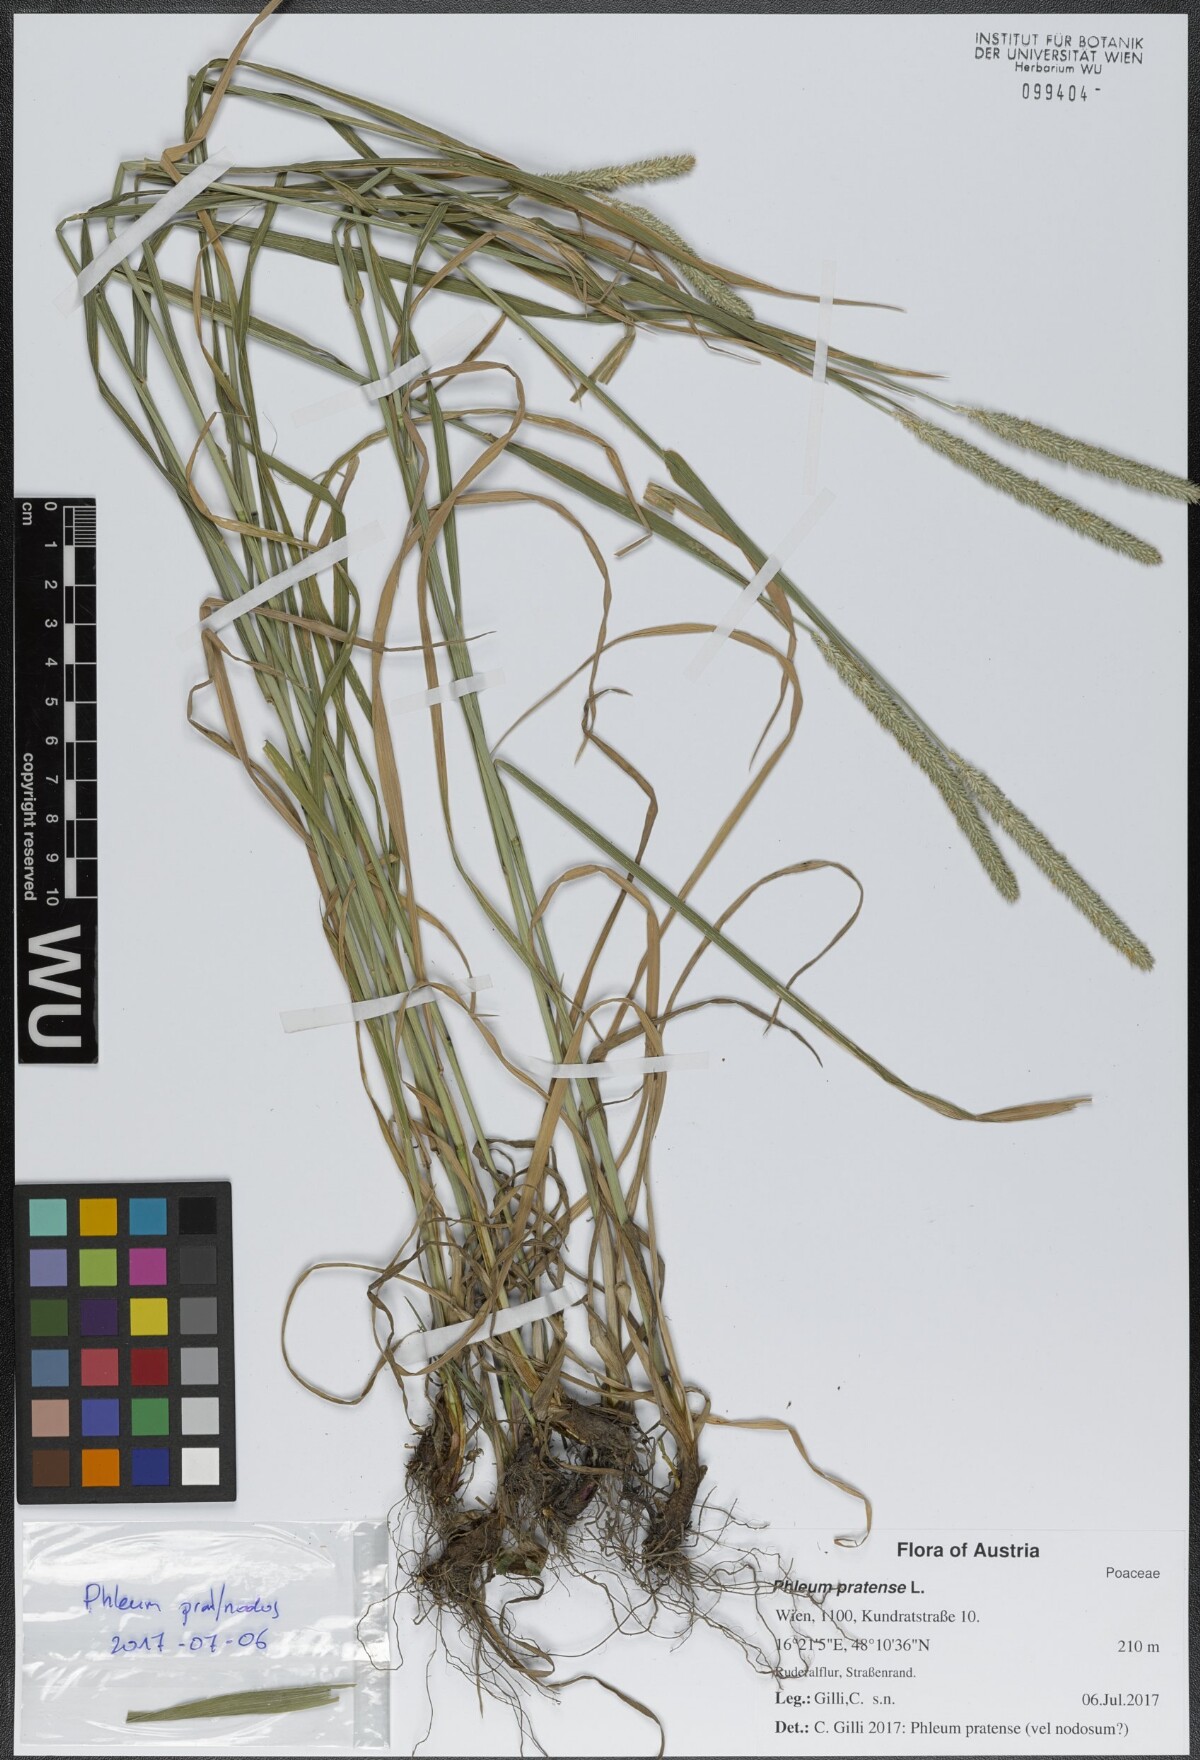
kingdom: Plantae
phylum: Tracheophyta
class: Liliopsida
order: Poales
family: Poaceae
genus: Phleum
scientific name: Phleum pratense
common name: Timothy grass
